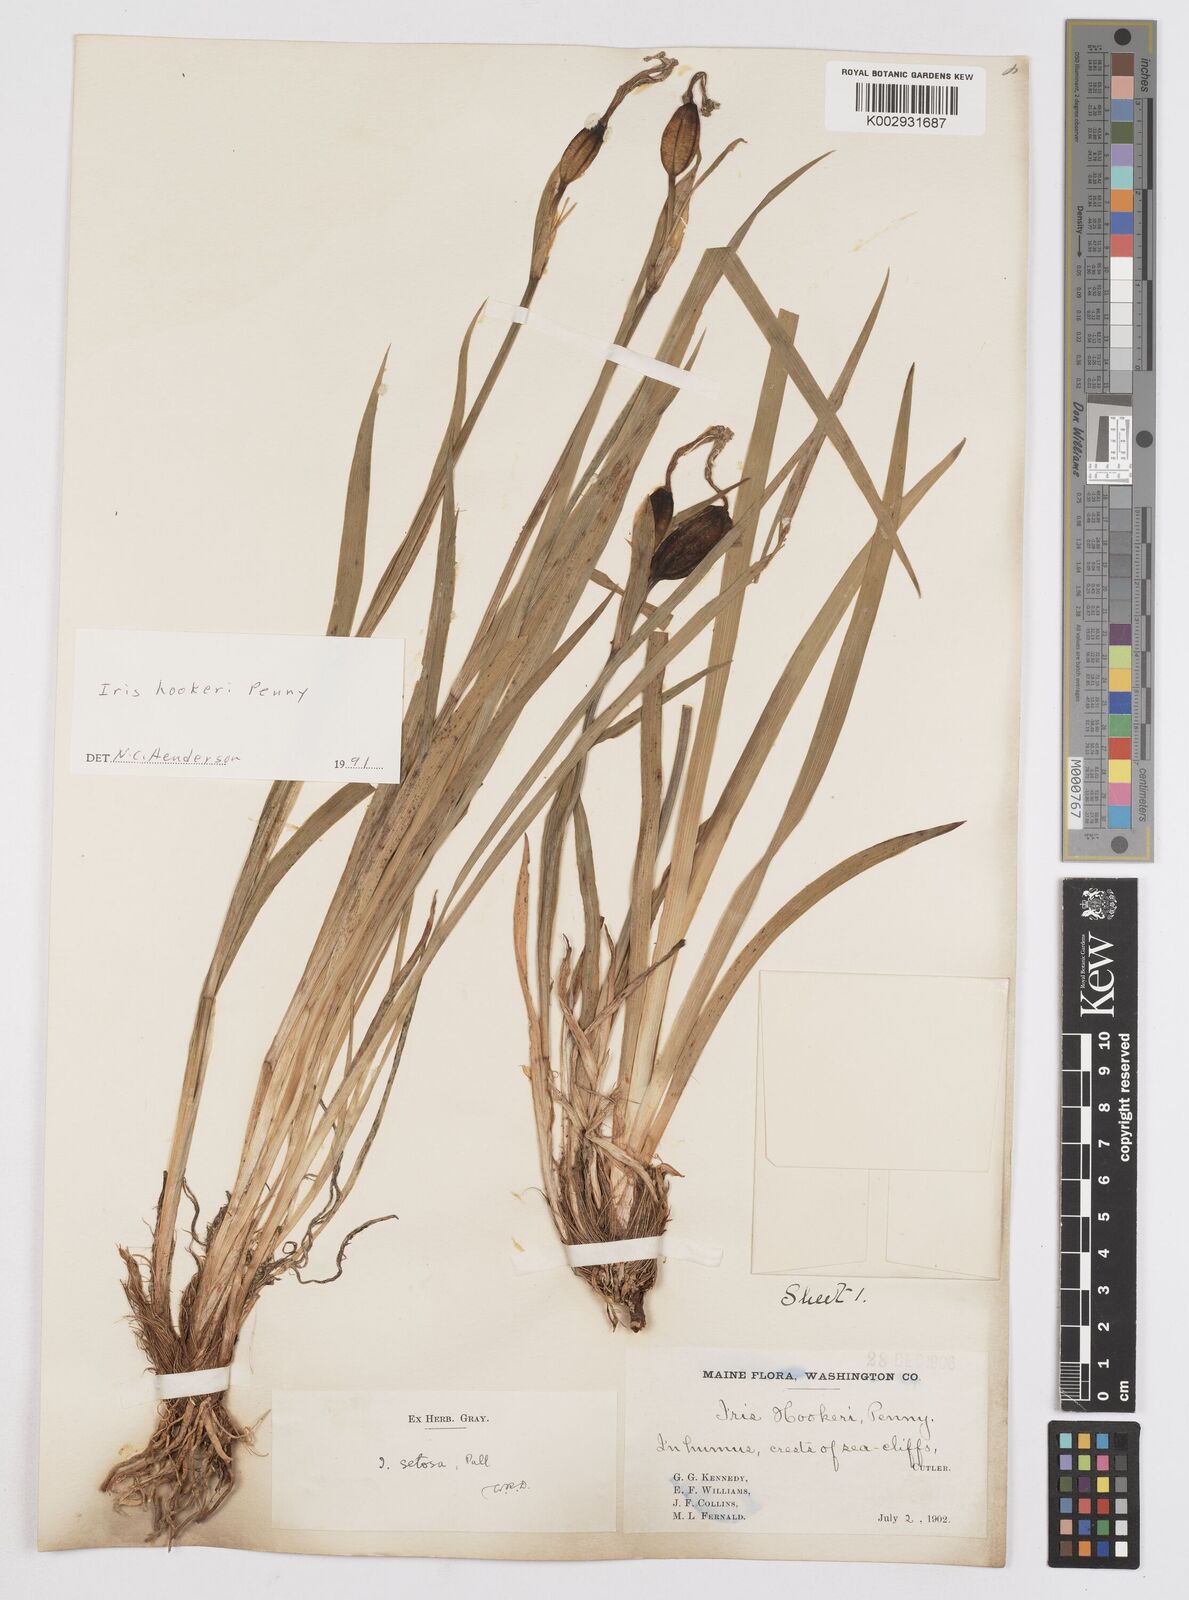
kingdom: Plantae
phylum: Tracheophyta
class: Liliopsida
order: Asparagales
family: Iridaceae
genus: Iris
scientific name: Iris setosa
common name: Arctic blue flag
